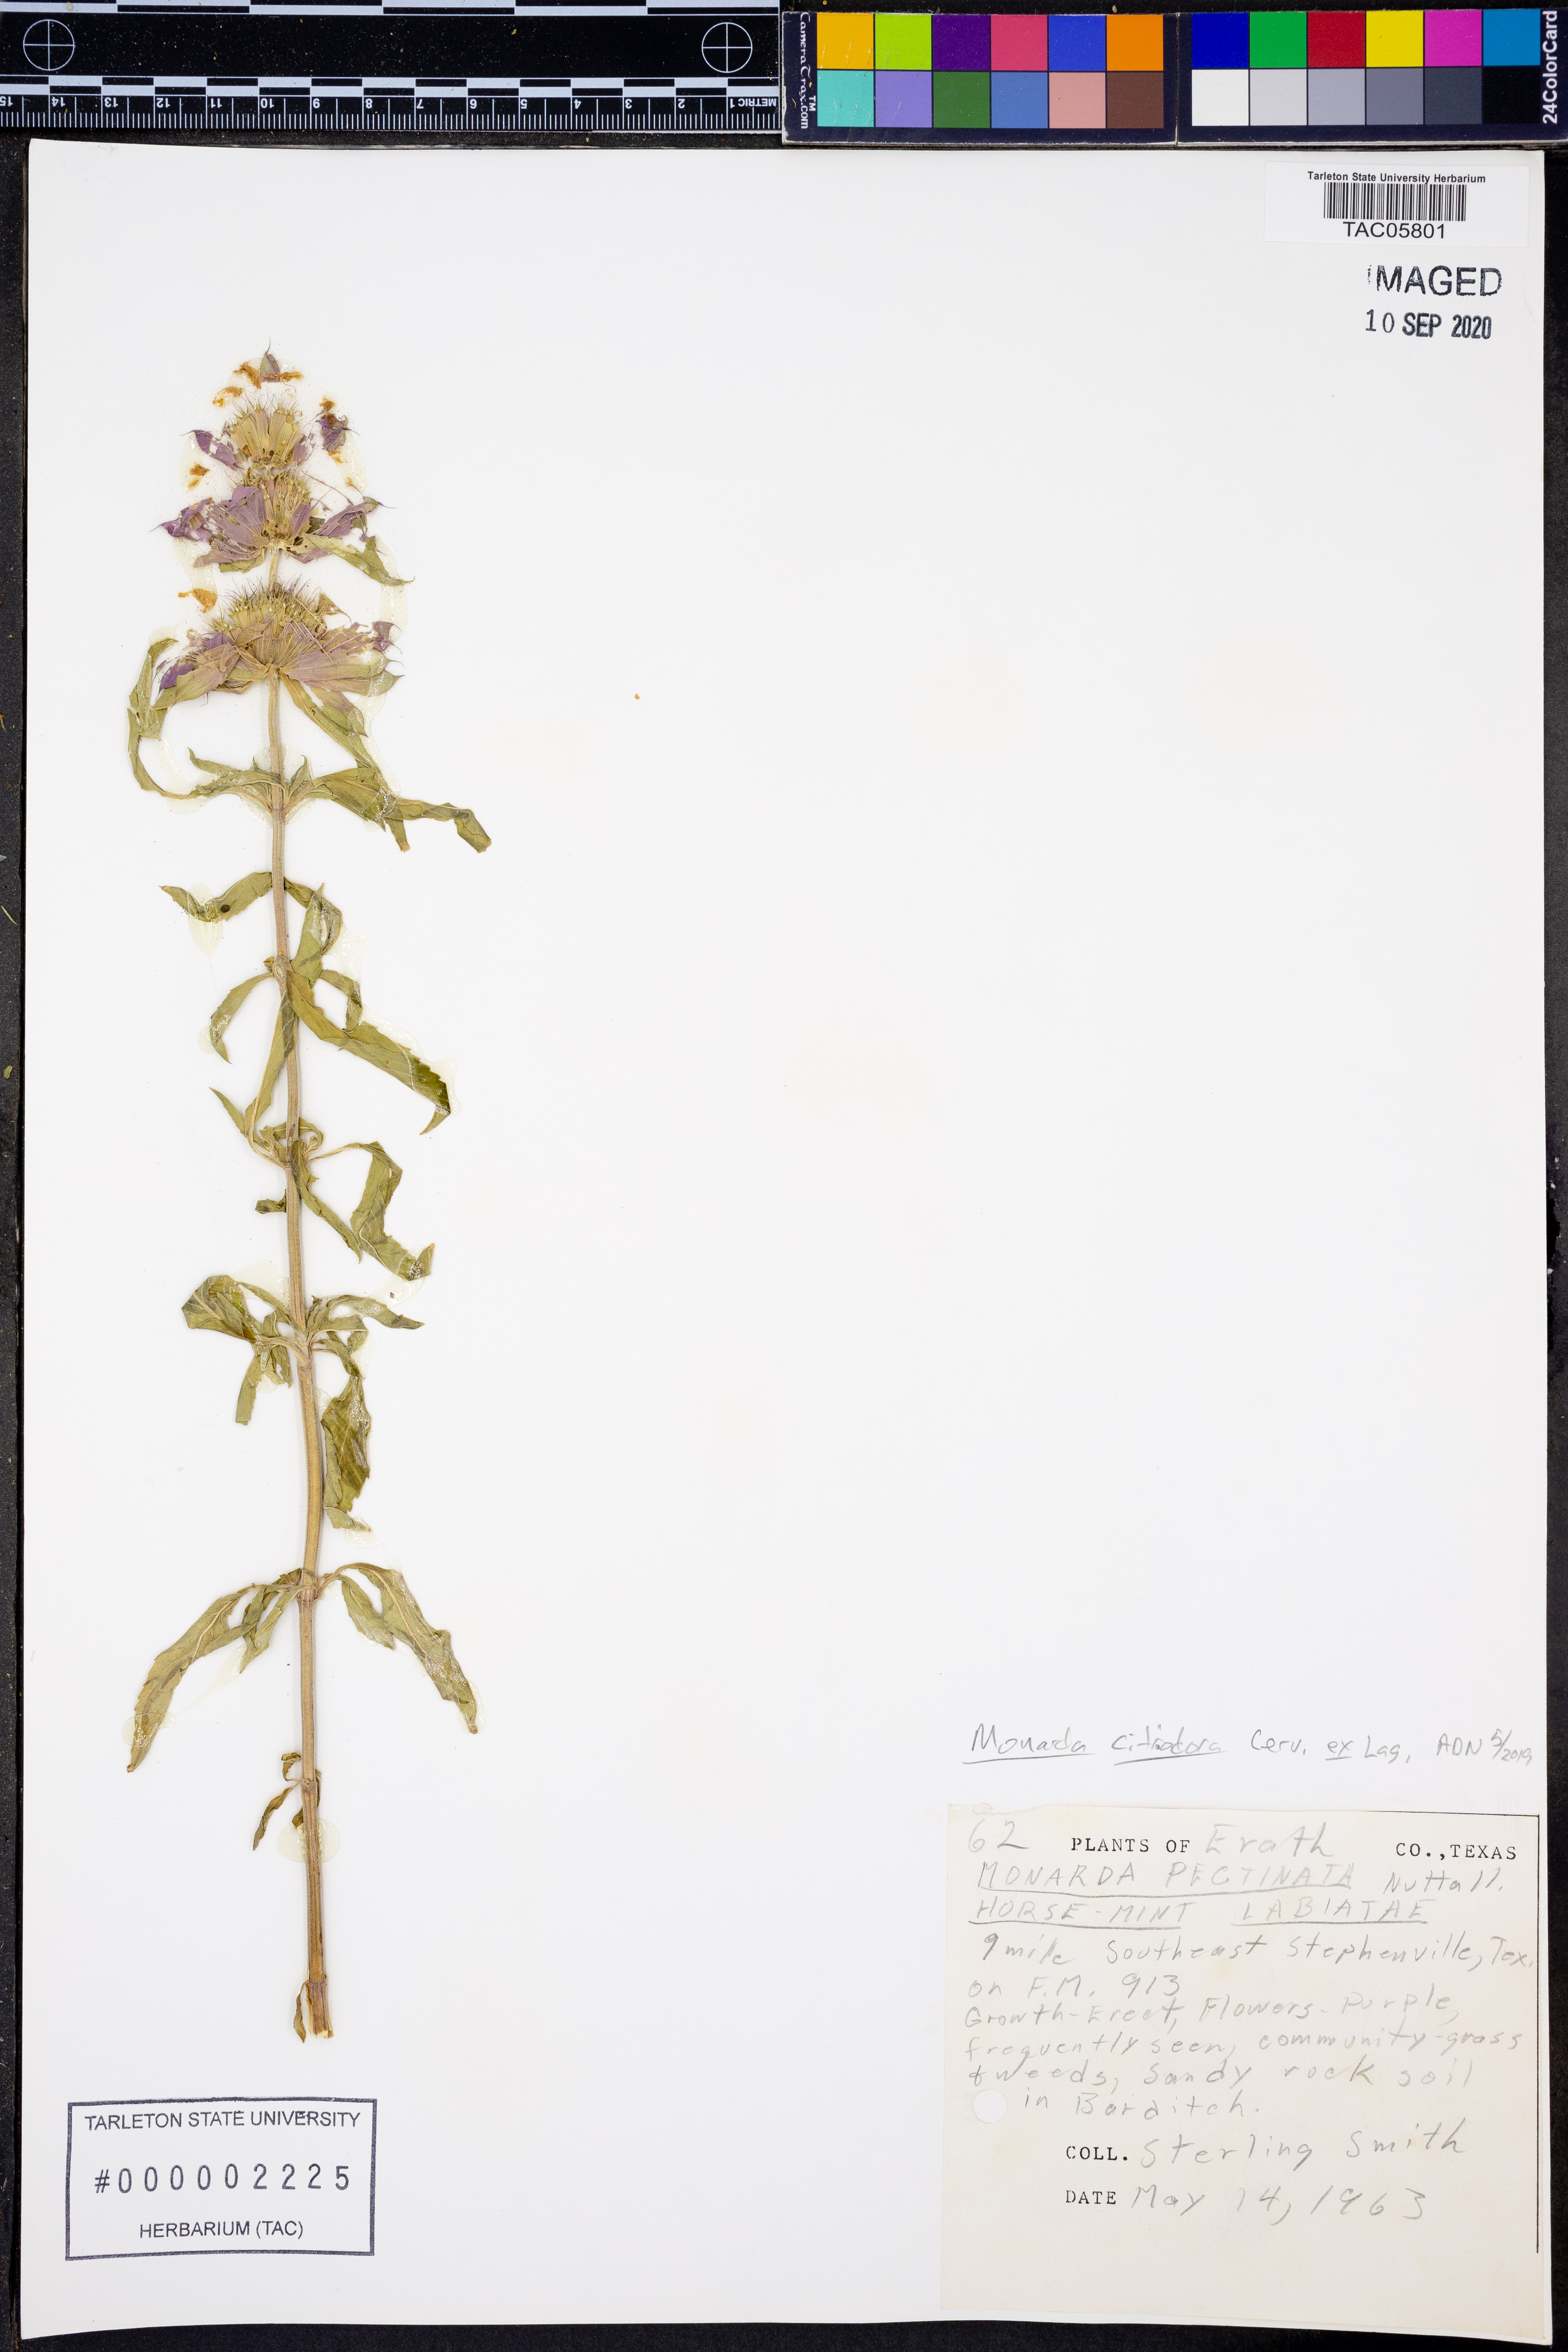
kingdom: Plantae
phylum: Tracheophyta
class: Magnoliopsida
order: Lamiales
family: Lamiaceae
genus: Monarda
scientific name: Monarda citriodora
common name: Lemon beebalm
